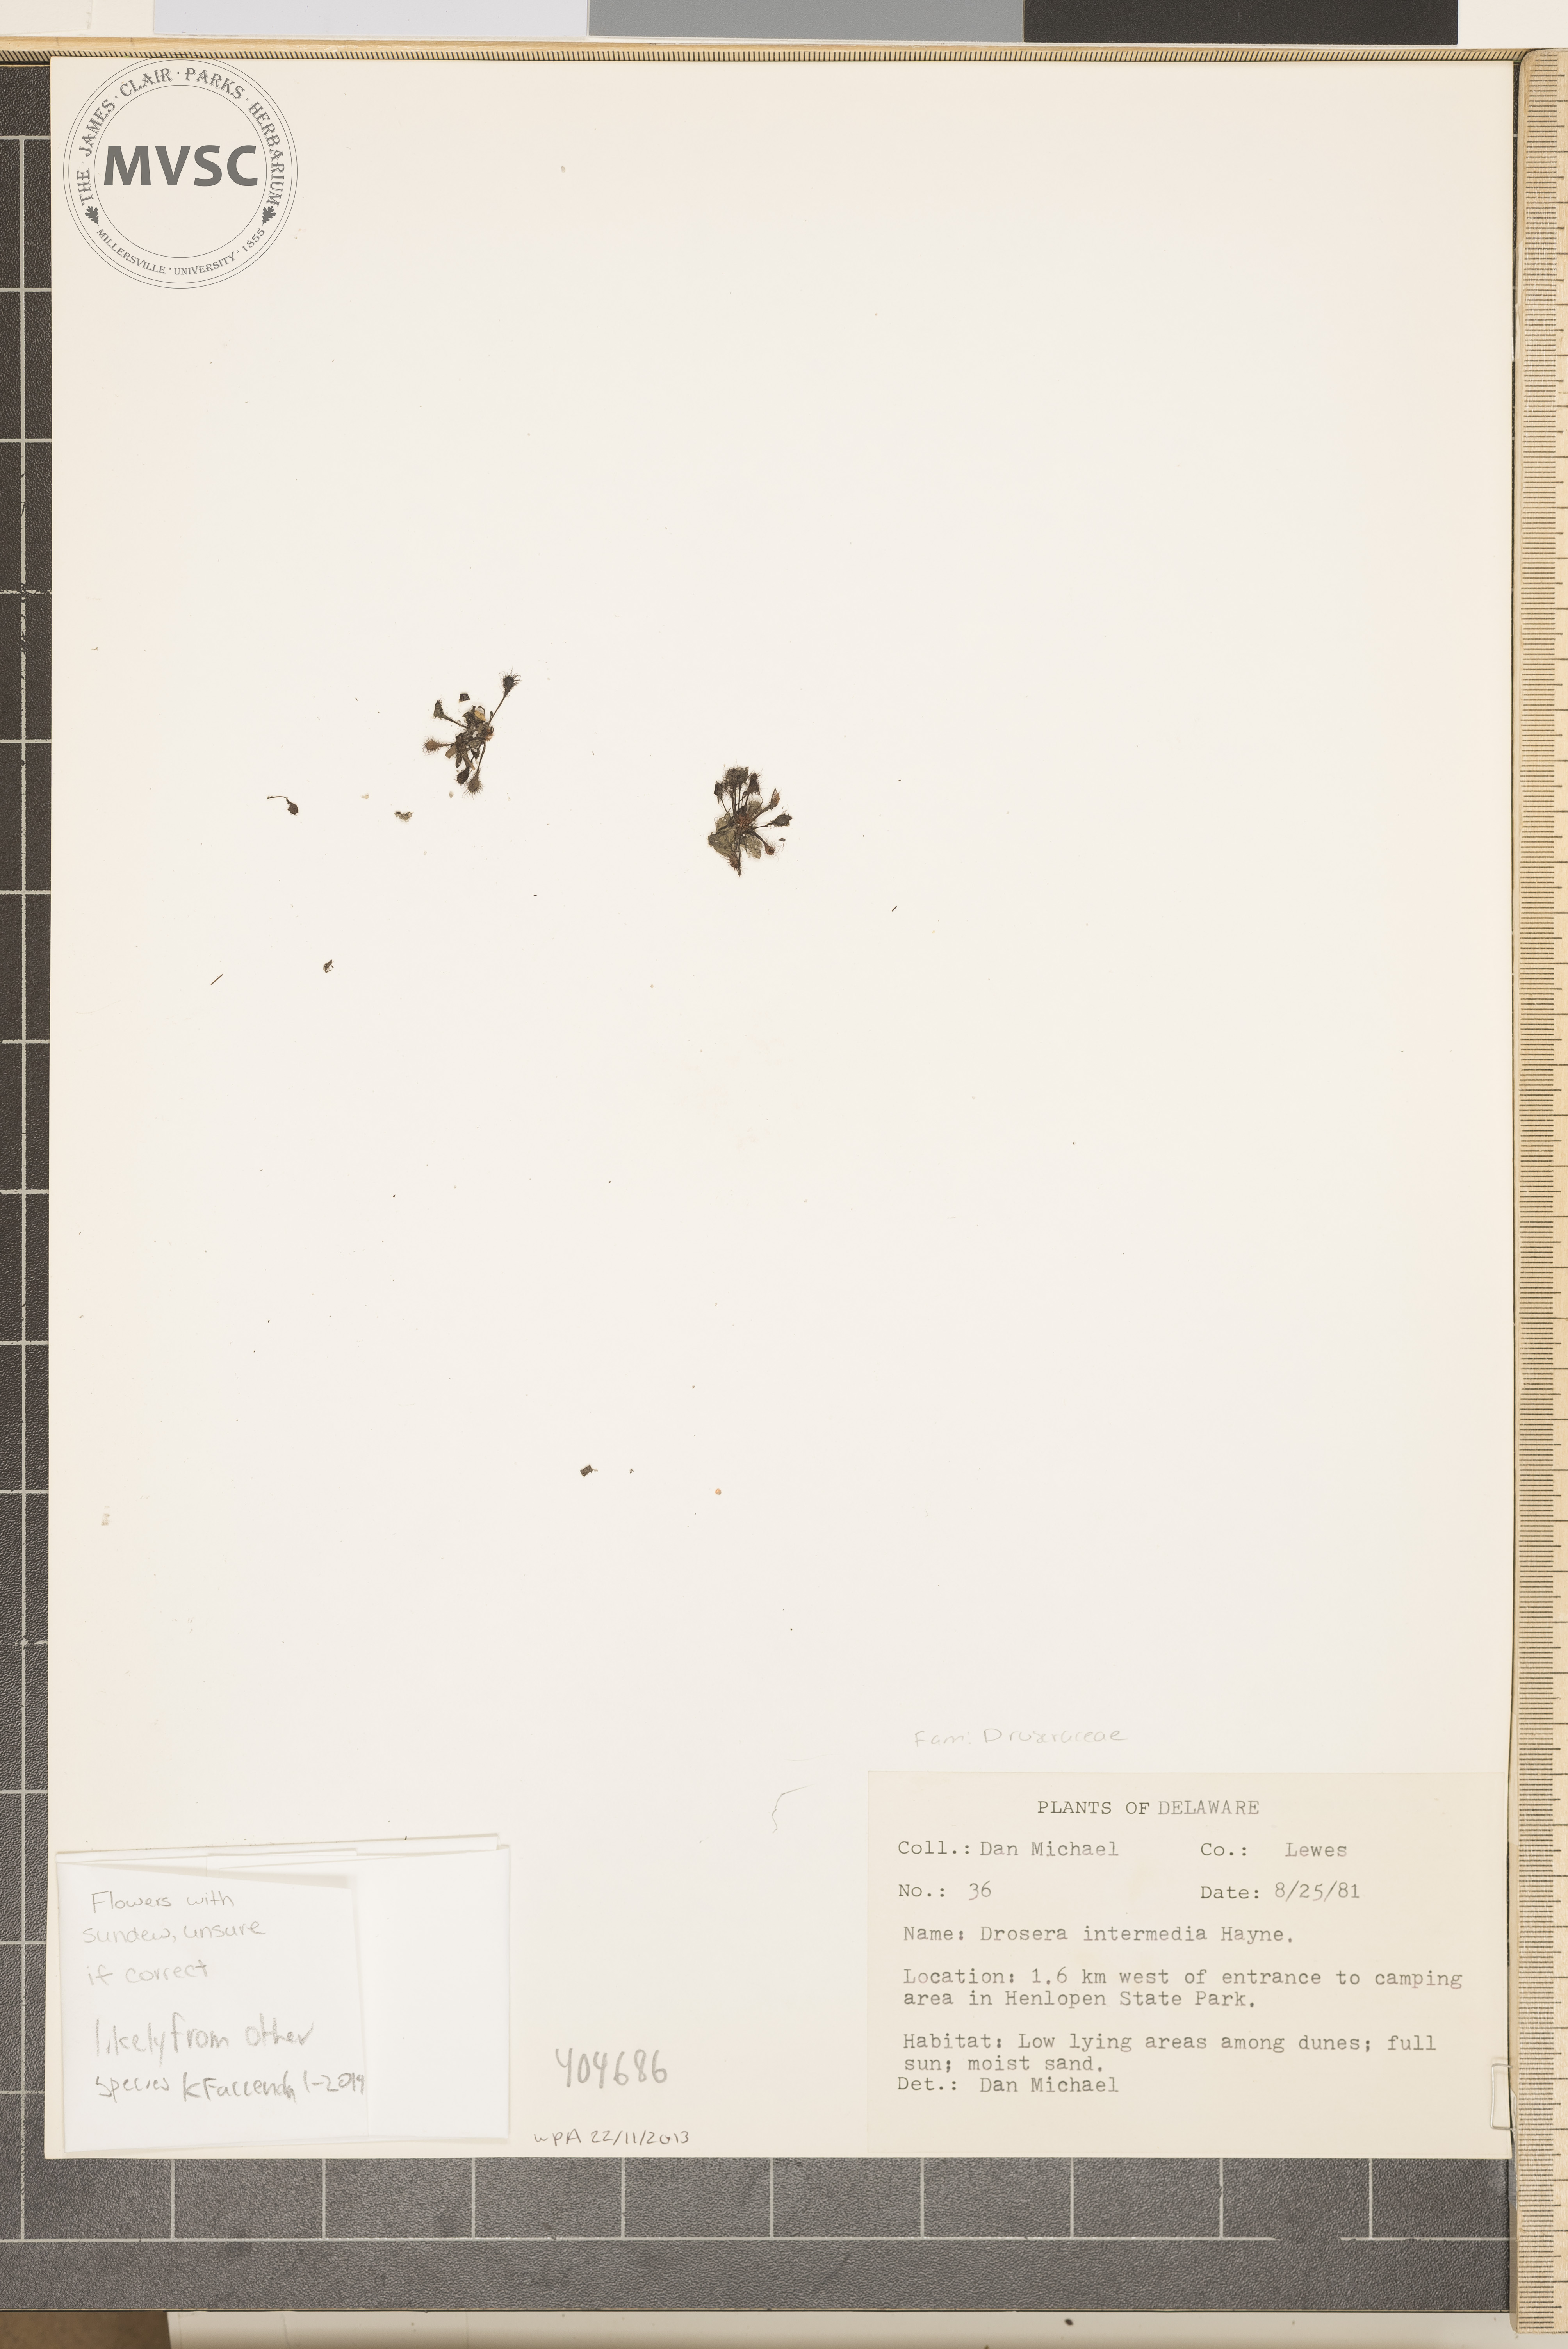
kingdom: Plantae
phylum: Tracheophyta
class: Magnoliopsida
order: Caryophyllales
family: Droseraceae
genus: Drosera
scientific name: Drosera intermedia
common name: Oblong-leaved sundew
